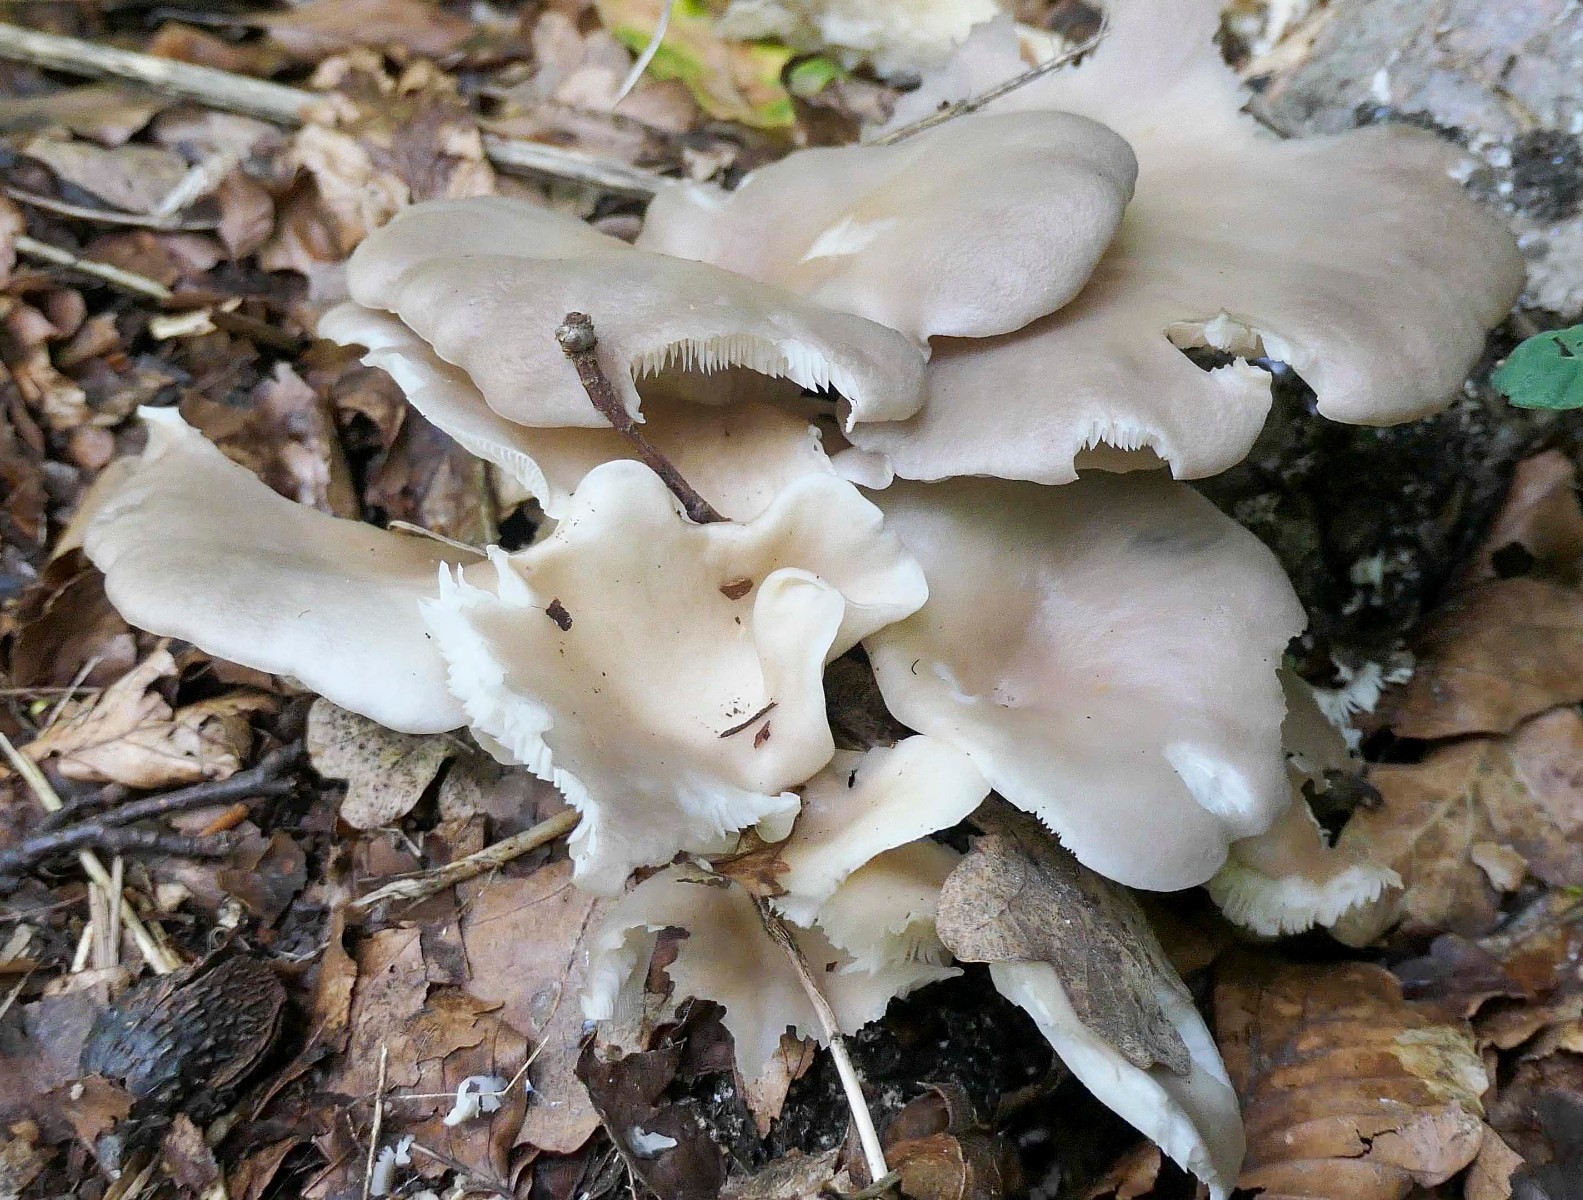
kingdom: Fungi
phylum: Basidiomycota
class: Agaricomycetes
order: Agaricales
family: Pleurotaceae
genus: Pleurotus
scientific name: Pleurotus pulmonarius
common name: sommer-østershat
